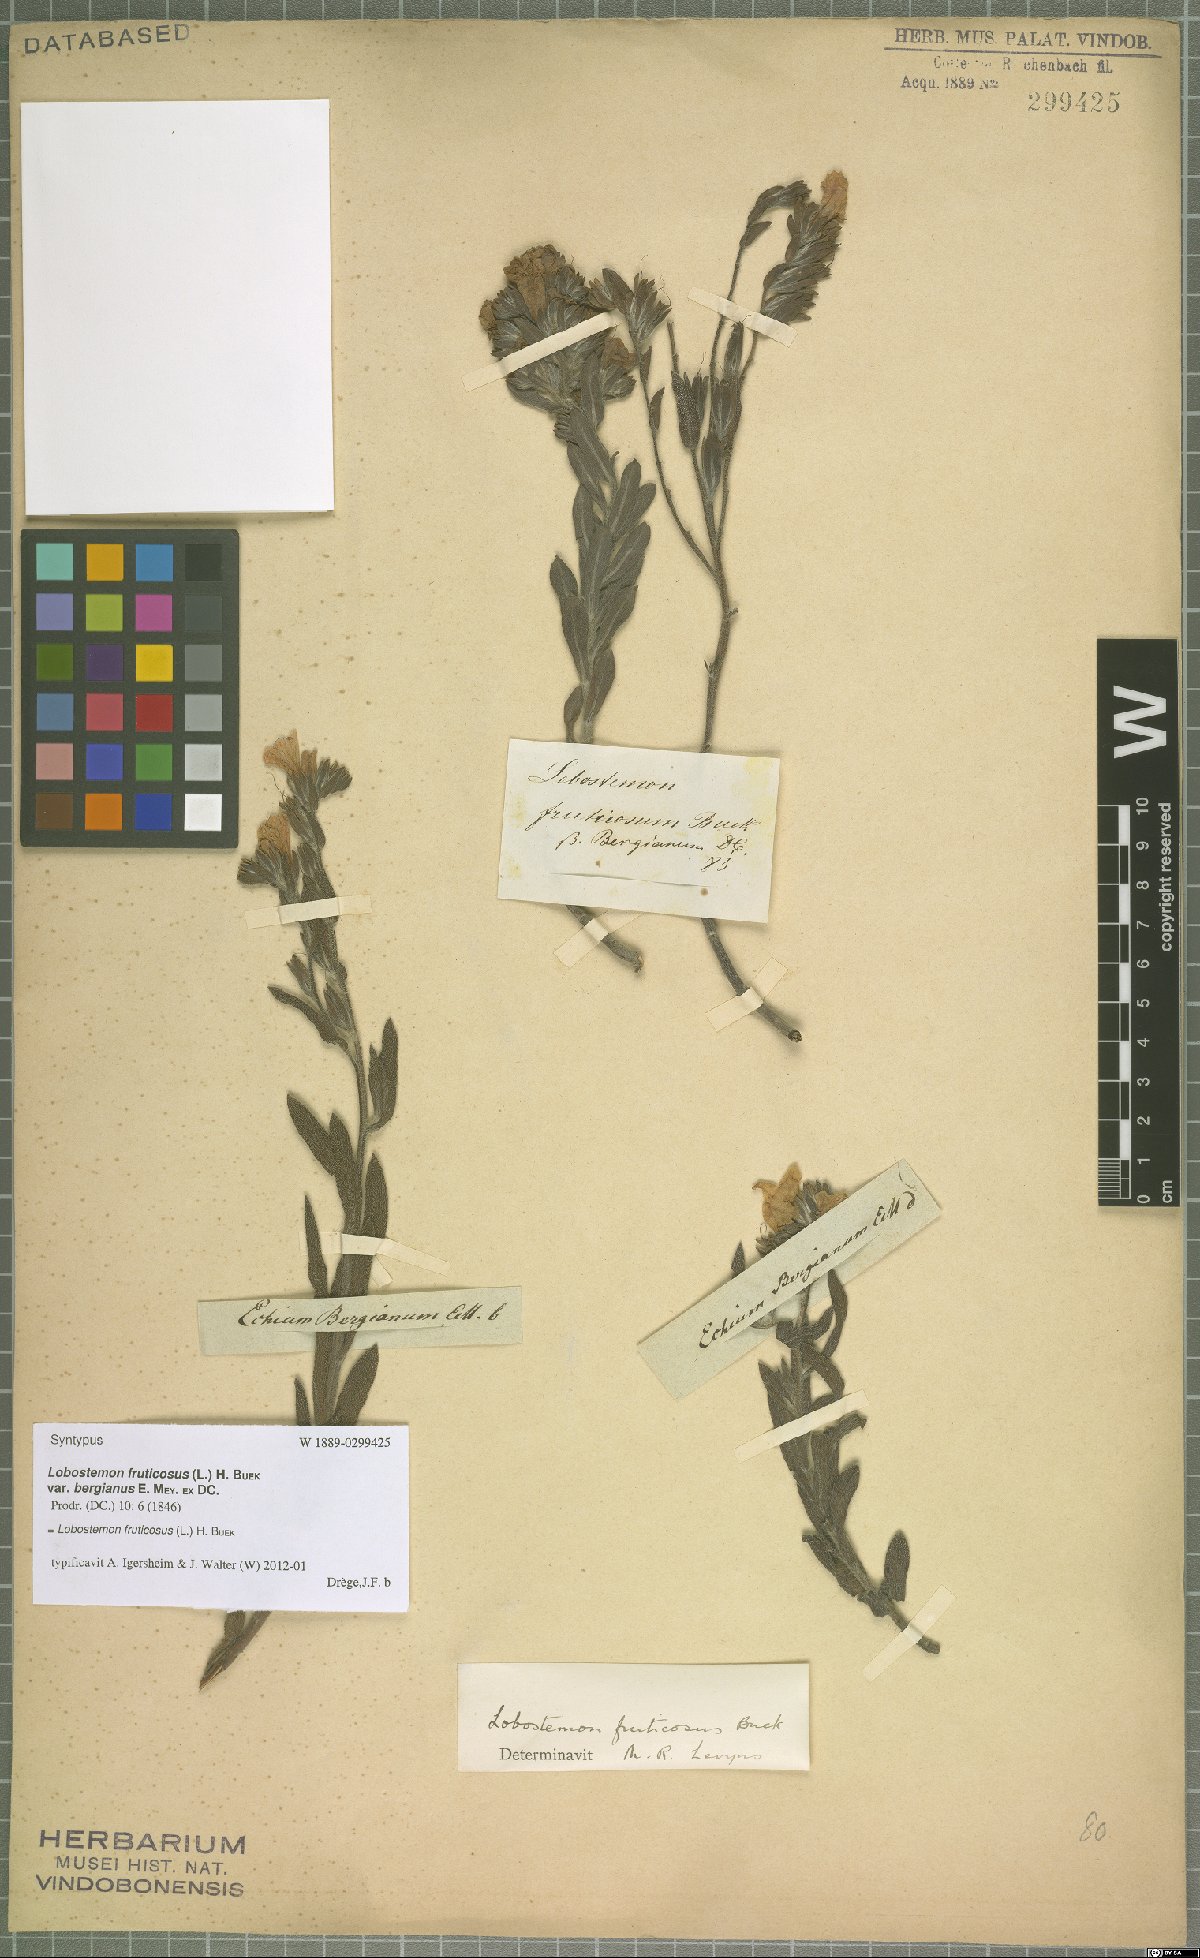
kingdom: Plantae
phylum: Tracheophyta
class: Magnoliopsida
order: Boraginales
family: Boraginaceae
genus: Lobostemon
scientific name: Lobostemon fruticosus
